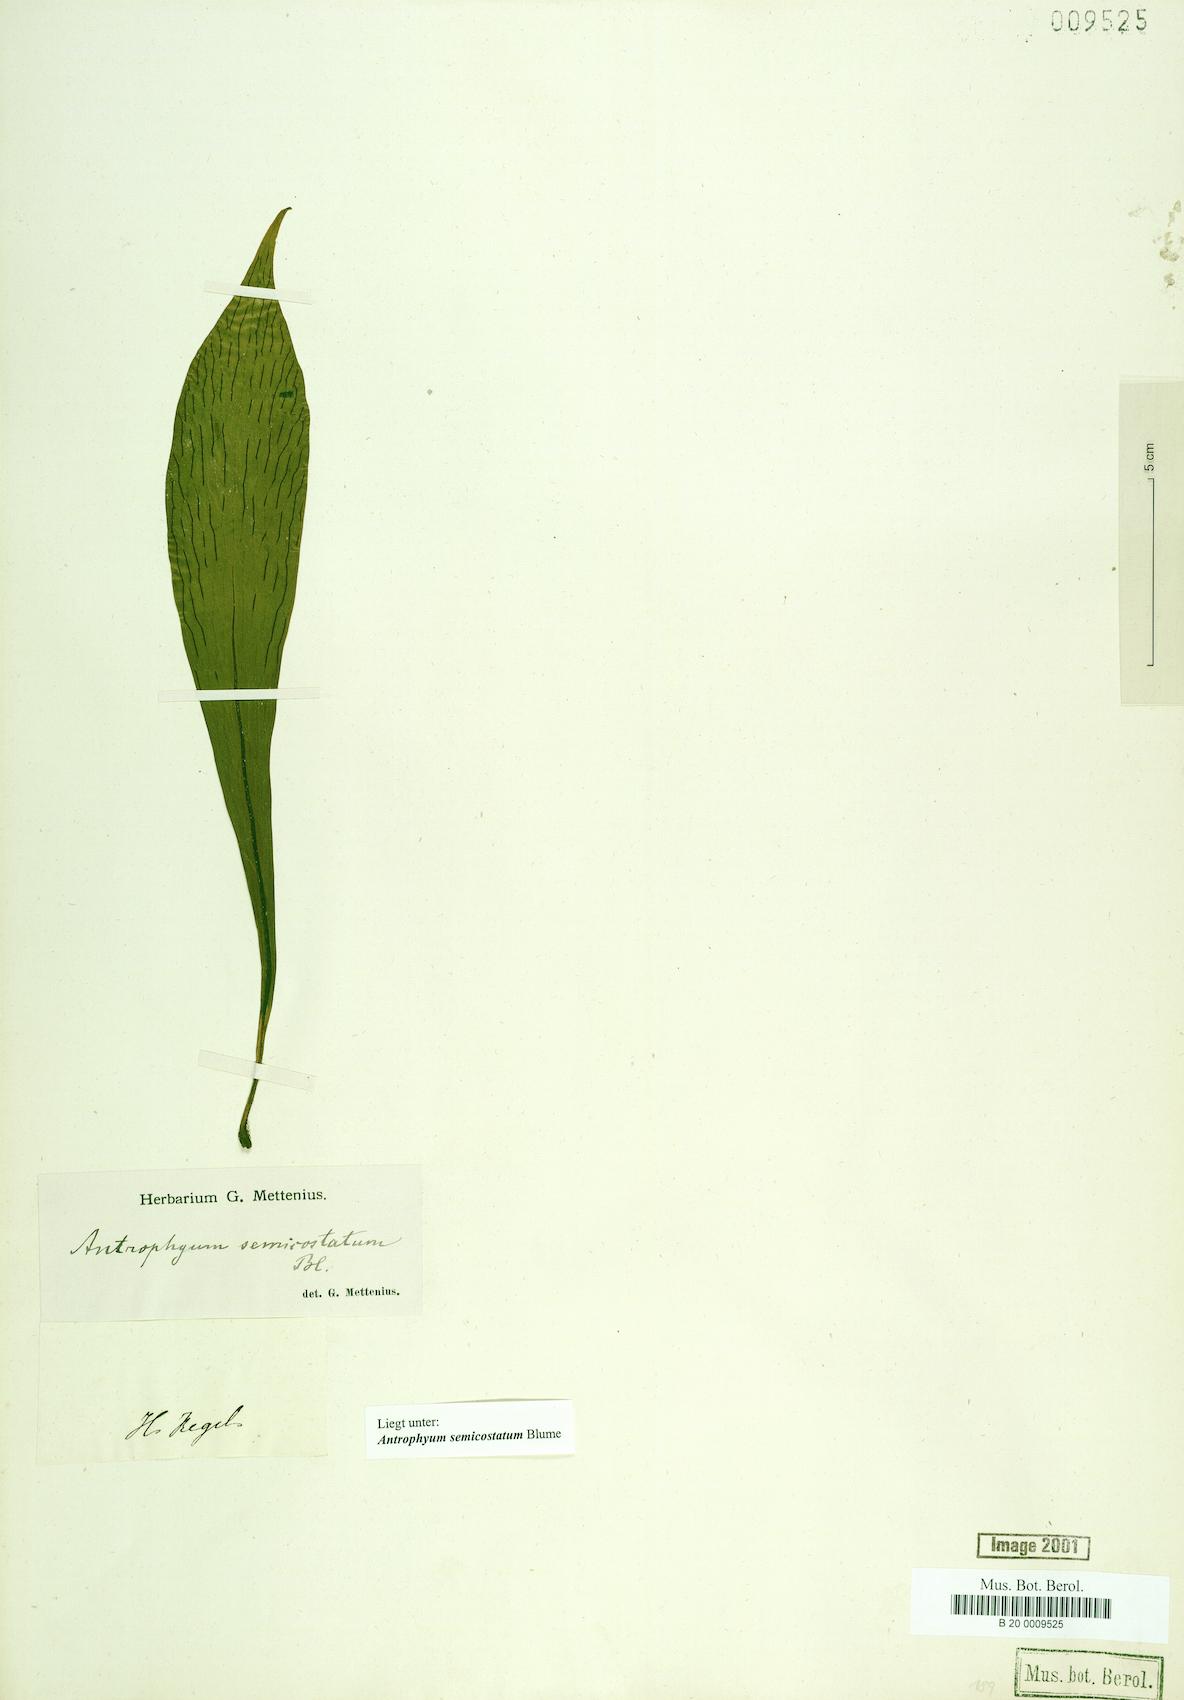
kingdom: Plantae
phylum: Tracheophyta
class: Polypodiopsida
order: Polypodiales
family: Pteridaceae
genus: Antrophyum
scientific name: Antrophyum semicostatum
